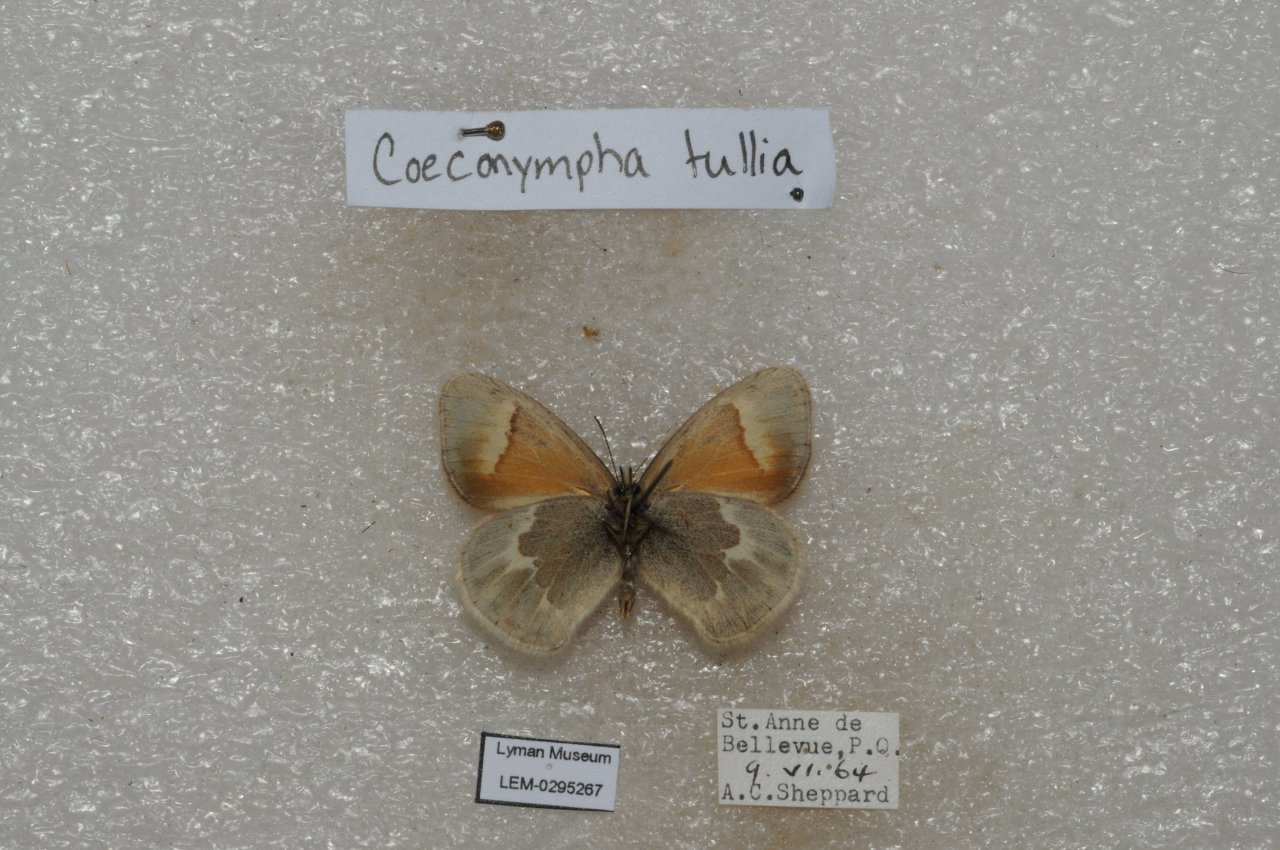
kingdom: Animalia
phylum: Arthropoda
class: Insecta
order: Lepidoptera
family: Nymphalidae
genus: Coenonympha
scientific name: Coenonympha tullia
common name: Large Heath
